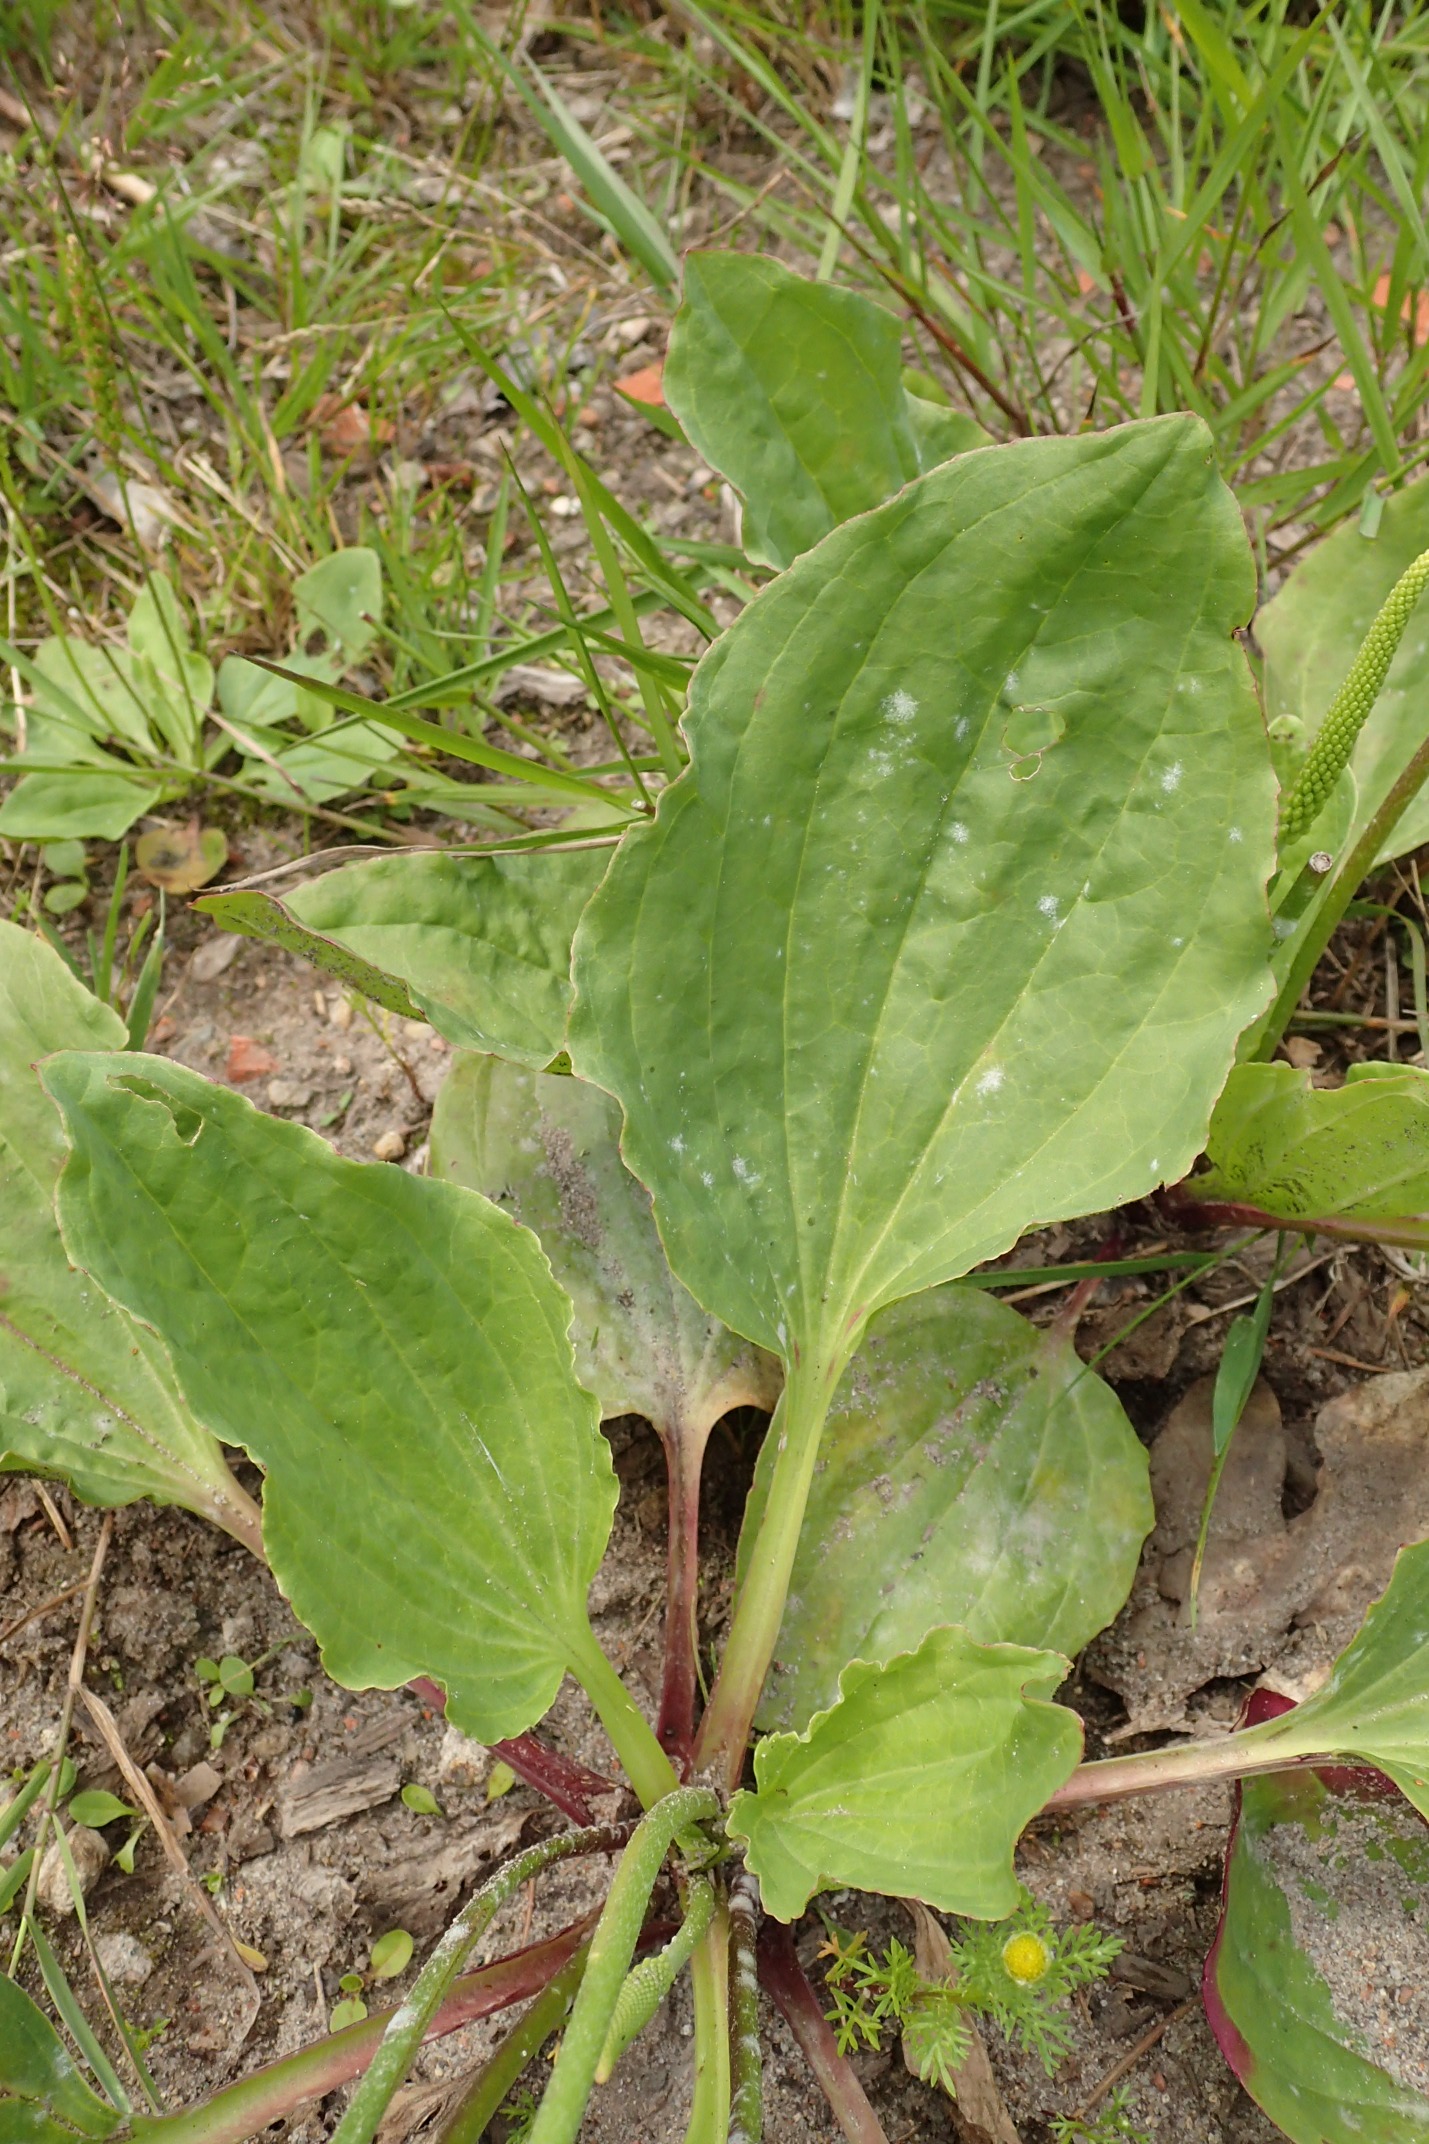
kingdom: Plantae
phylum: Tracheophyta
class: Magnoliopsida
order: Lamiales
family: Plantaginaceae
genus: Plantago
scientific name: Plantago major
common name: Glat vejbred
